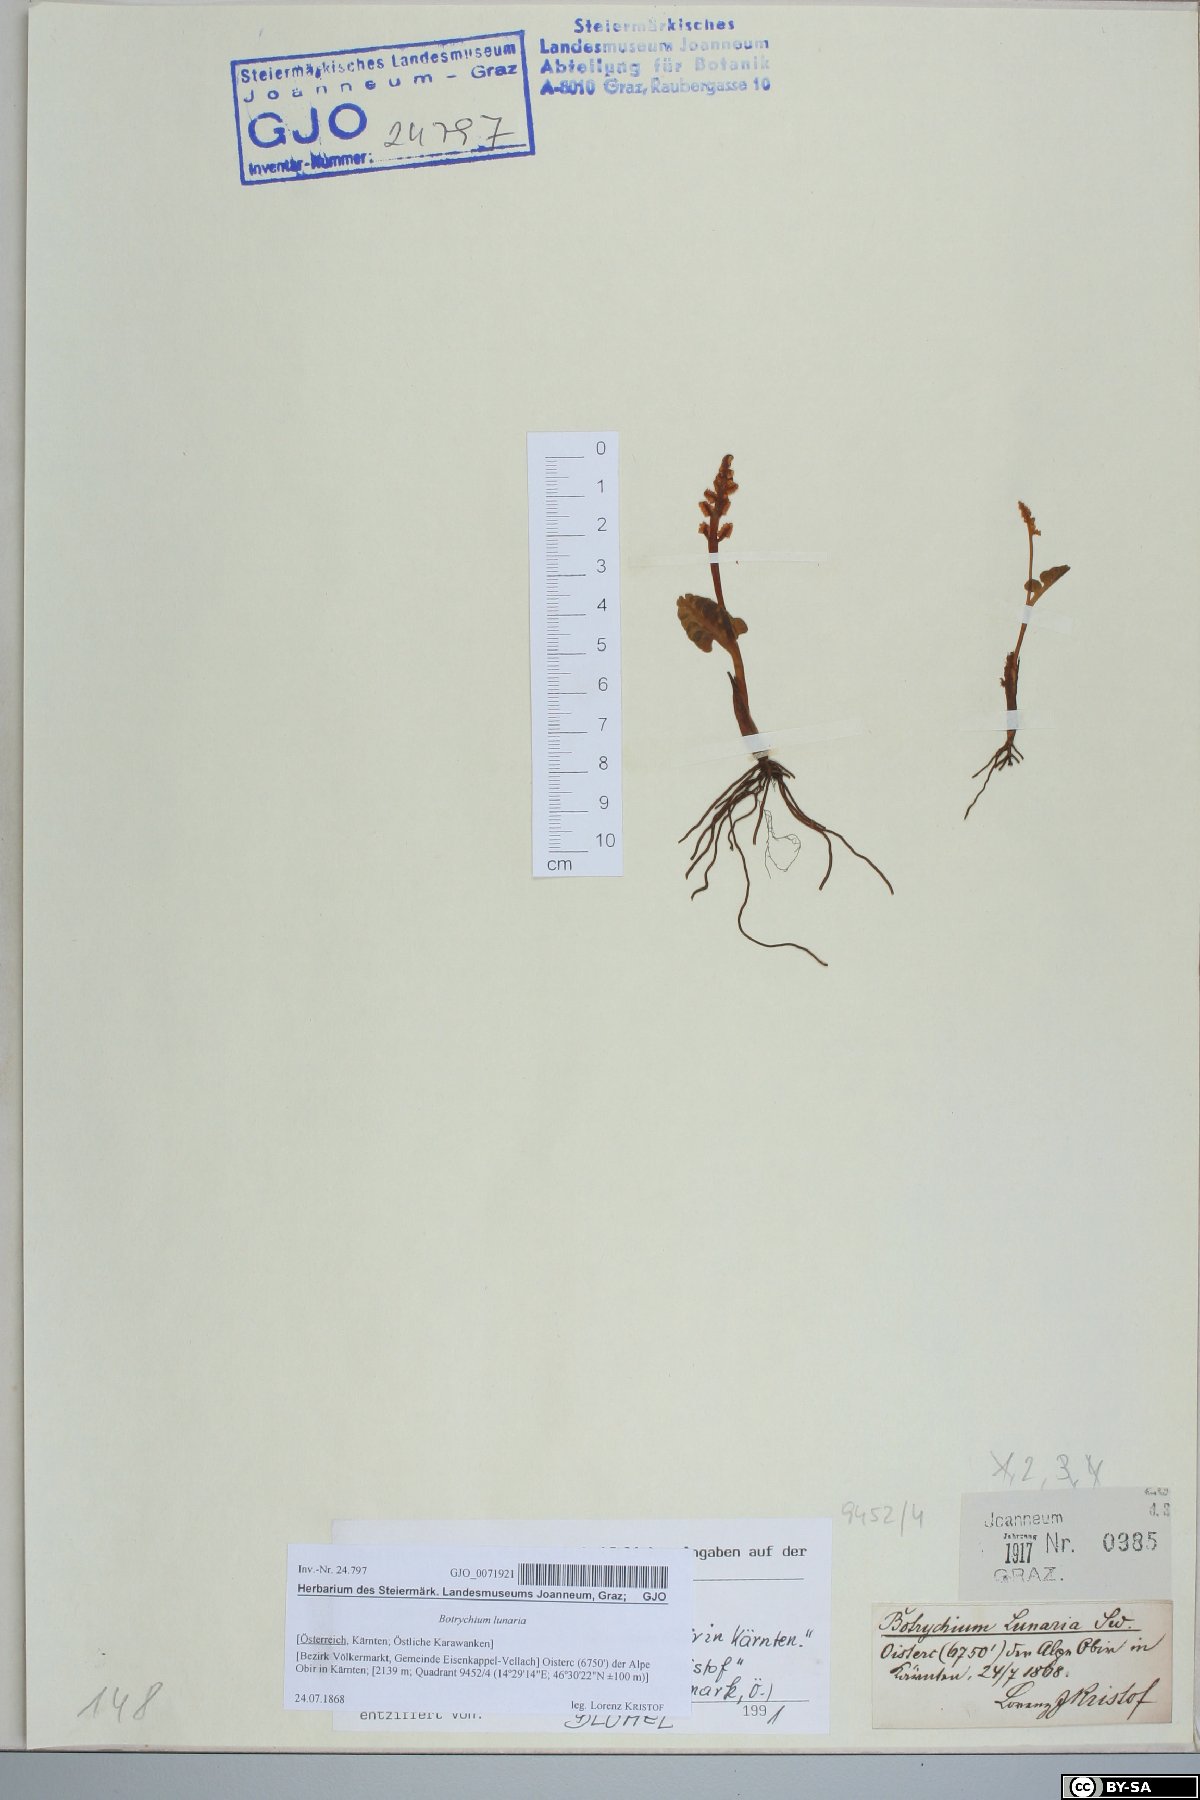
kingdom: Plantae
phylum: Tracheophyta
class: Polypodiopsida
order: Ophioglossales
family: Ophioglossaceae
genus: Botrychium
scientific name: Botrychium lunaria
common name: Moonwort
